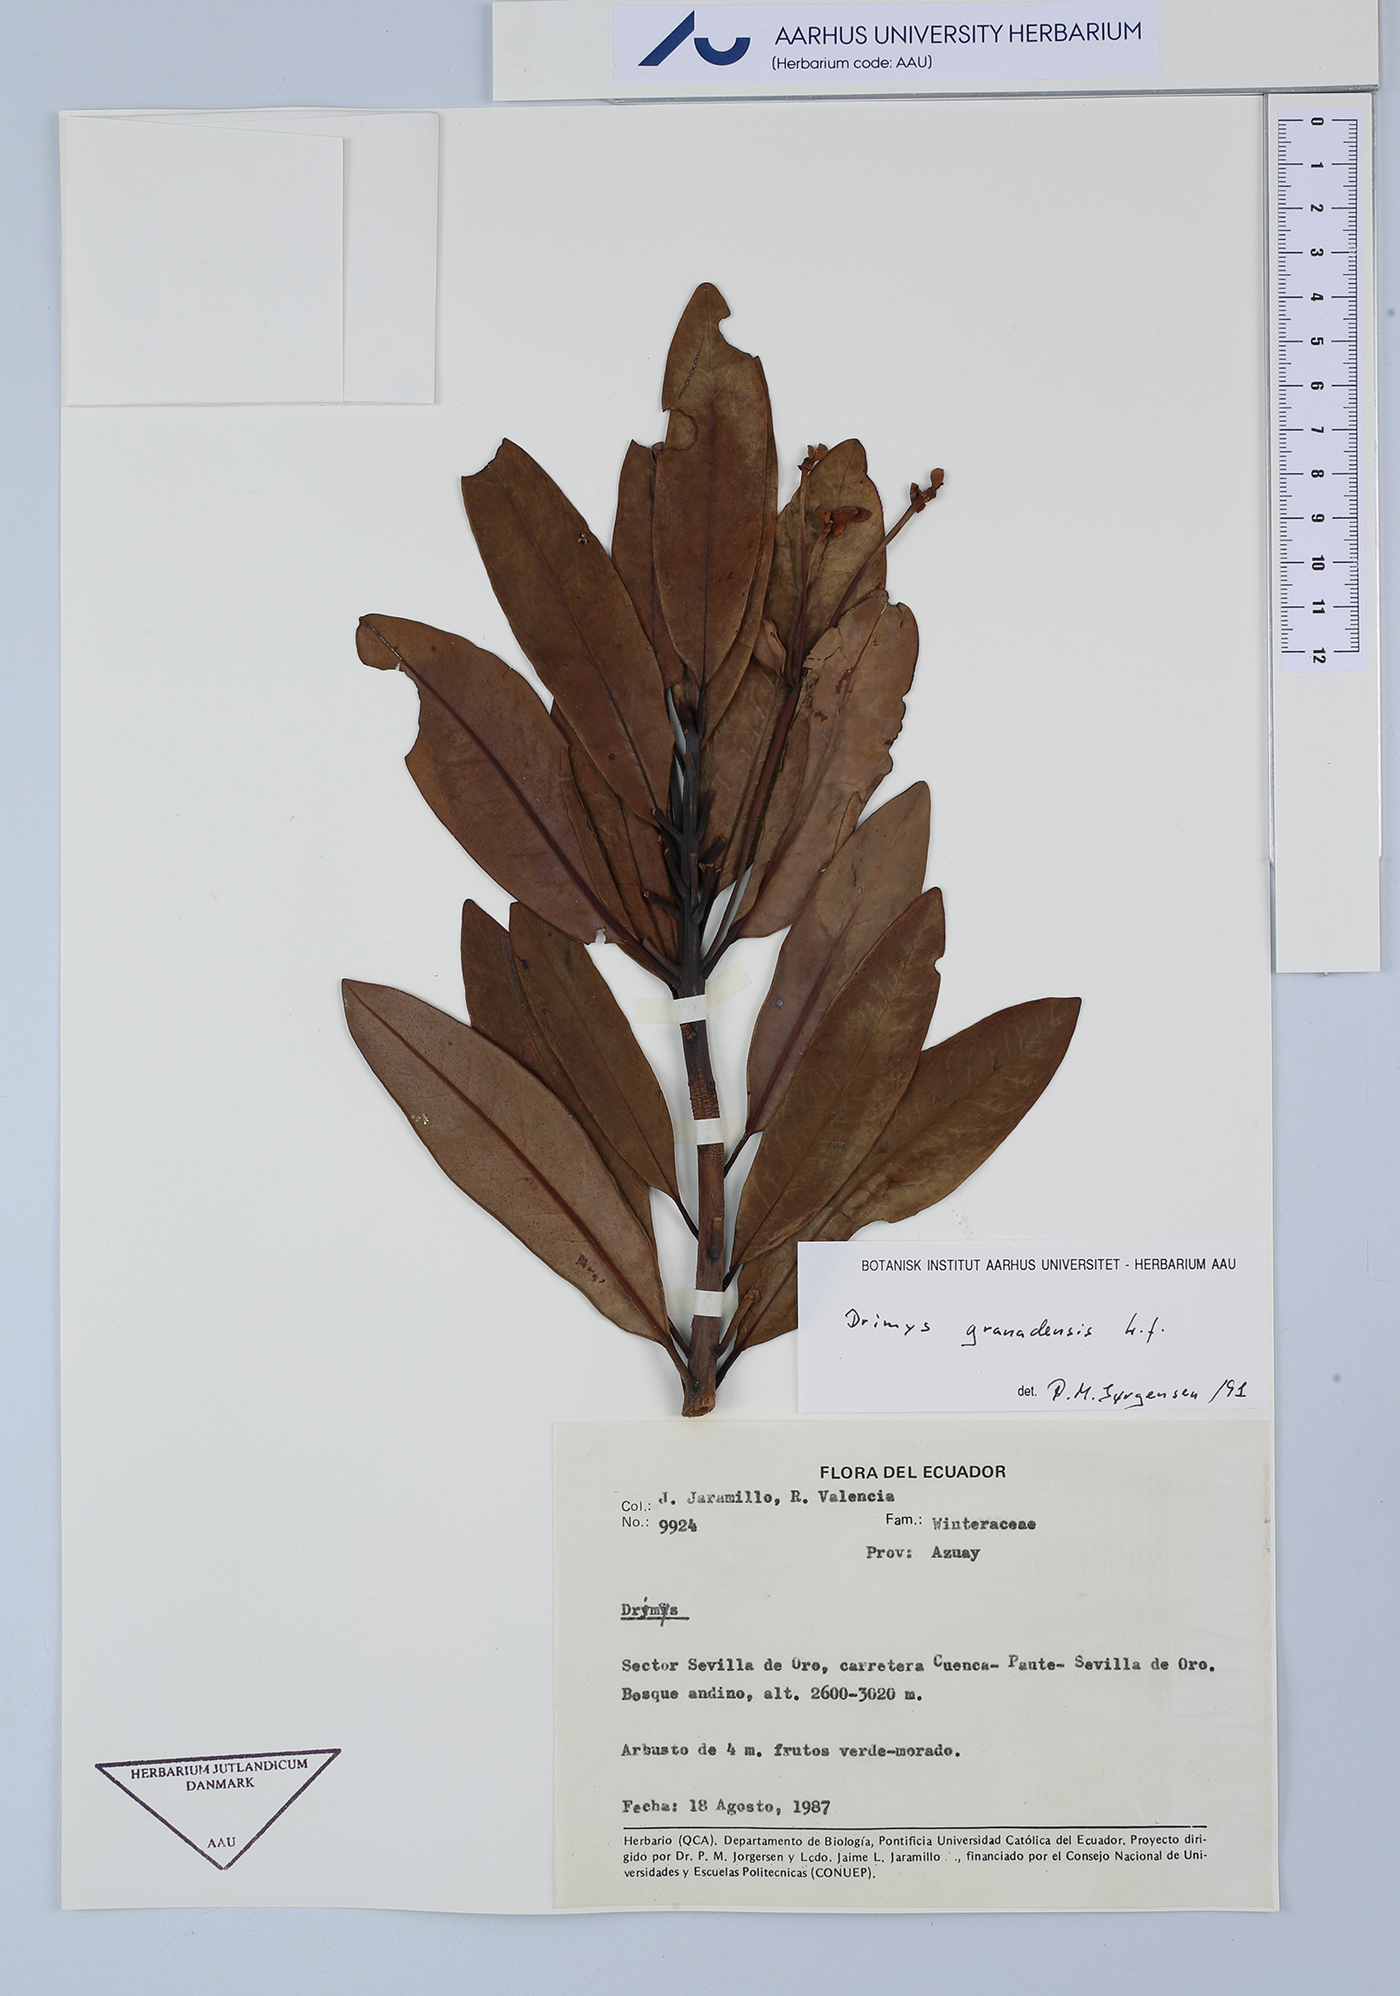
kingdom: Plantae
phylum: Tracheophyta
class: Magnoliopsida
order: Canellales
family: Winteraceae
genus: Drimys
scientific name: Drimys granadensis
